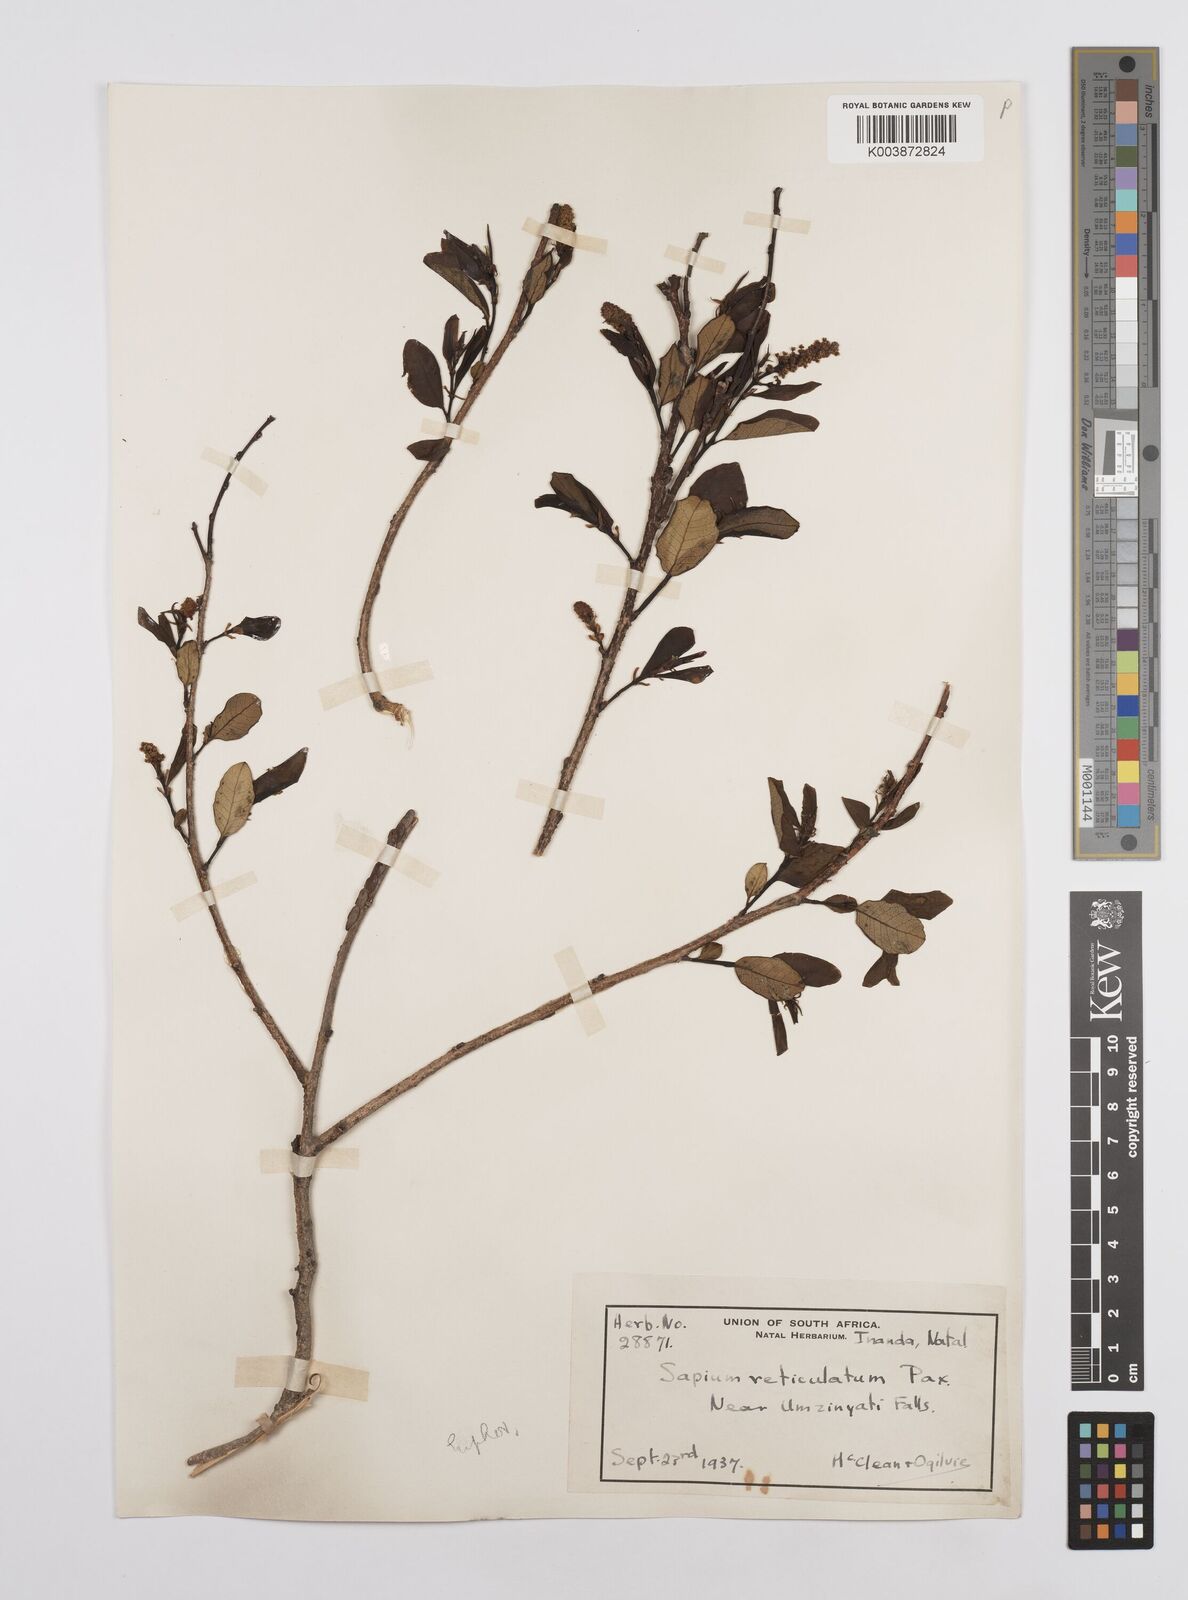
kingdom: Plantae
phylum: Tracheophyta
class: Magnoliopsida
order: Malpighiales
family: Euphorbiaceae
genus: Sclerocroton
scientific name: Sclerocroton integerrimus
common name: Duiker berry
